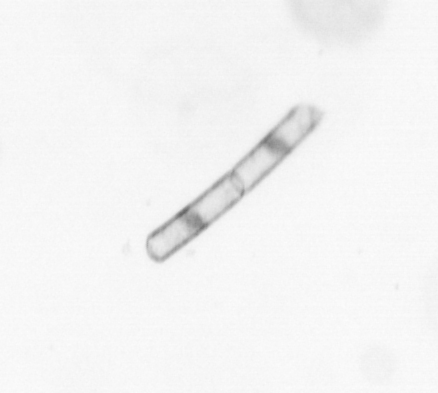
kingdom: Chromista
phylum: Ochrophyta
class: Bacillariophyceae
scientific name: Bacillariophyceae
